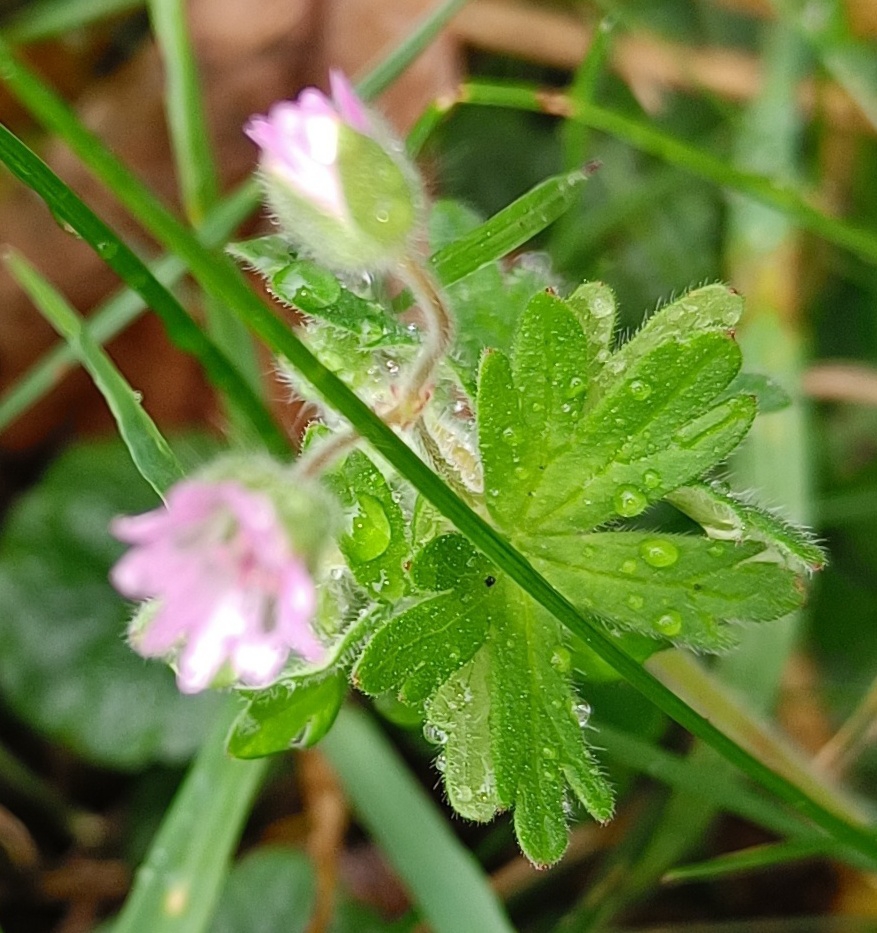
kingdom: Plantae
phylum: Tracheophyta
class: Magnoliopsida
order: Geraniales
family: Geraniaceae
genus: Geranium
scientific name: Geranium molle
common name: Blød storkenæb
